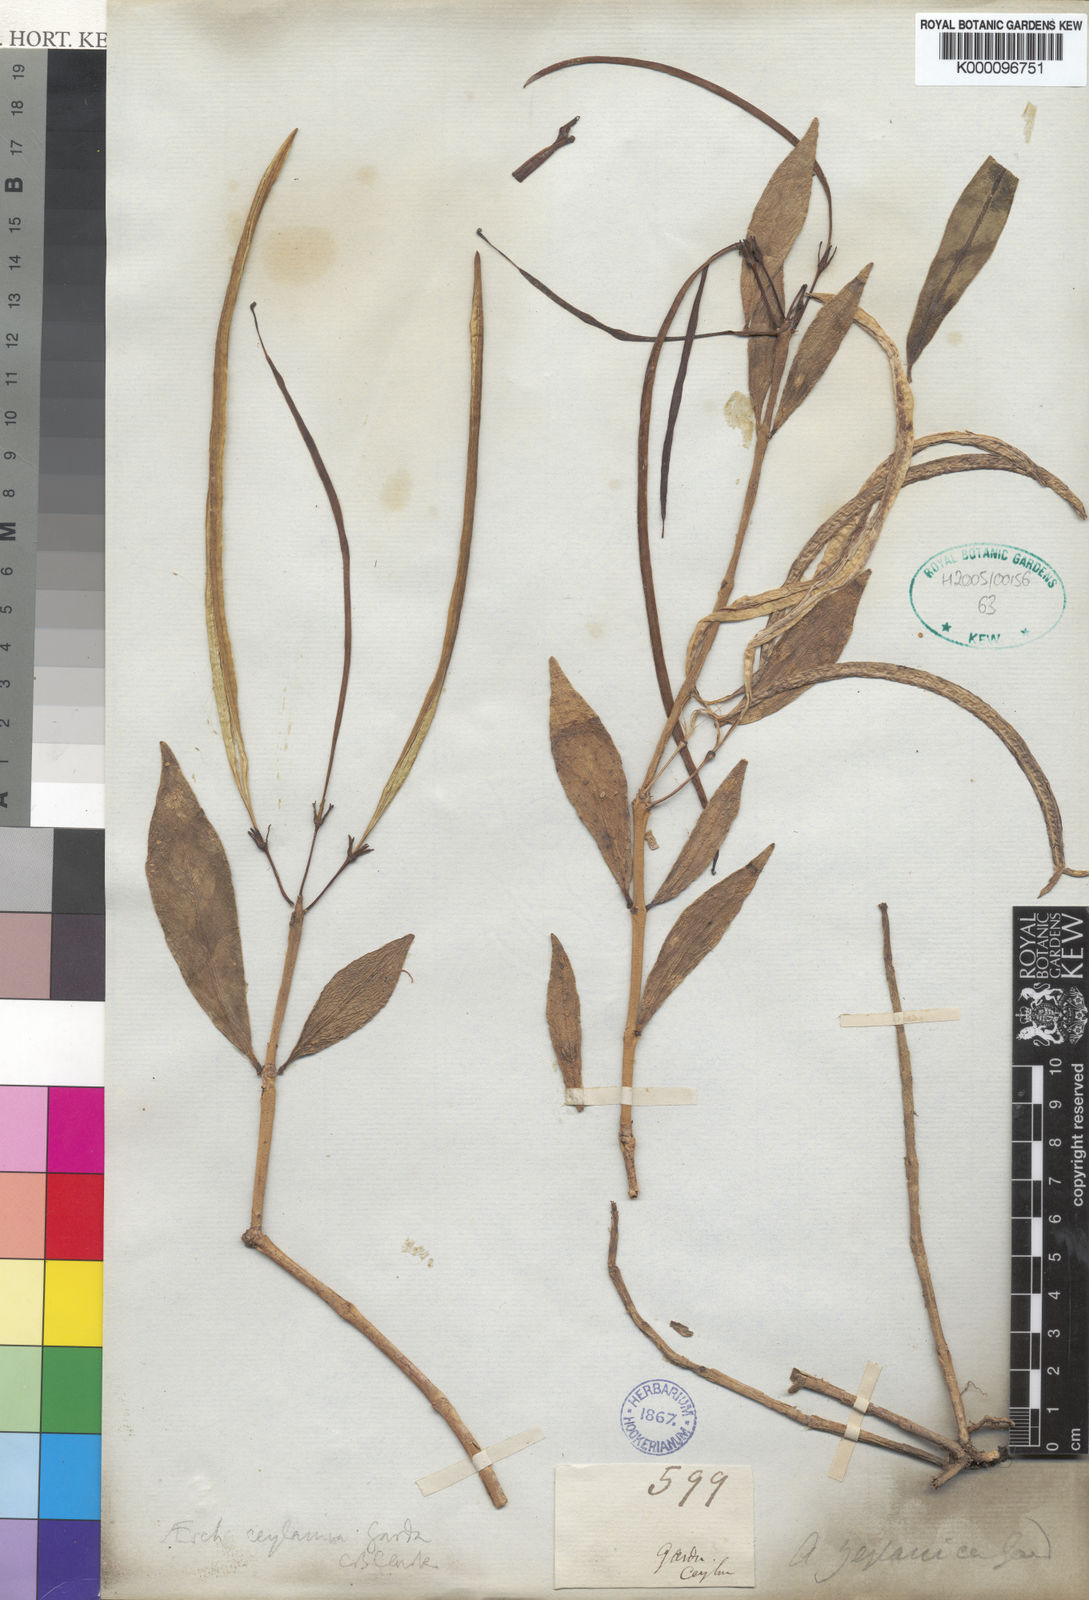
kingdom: Plantae
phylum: Tracheophyta
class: Magnoliopsida
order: Lamiales
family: Gesneriaceae
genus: Aeschynanthus
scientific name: Aeschynanthus
